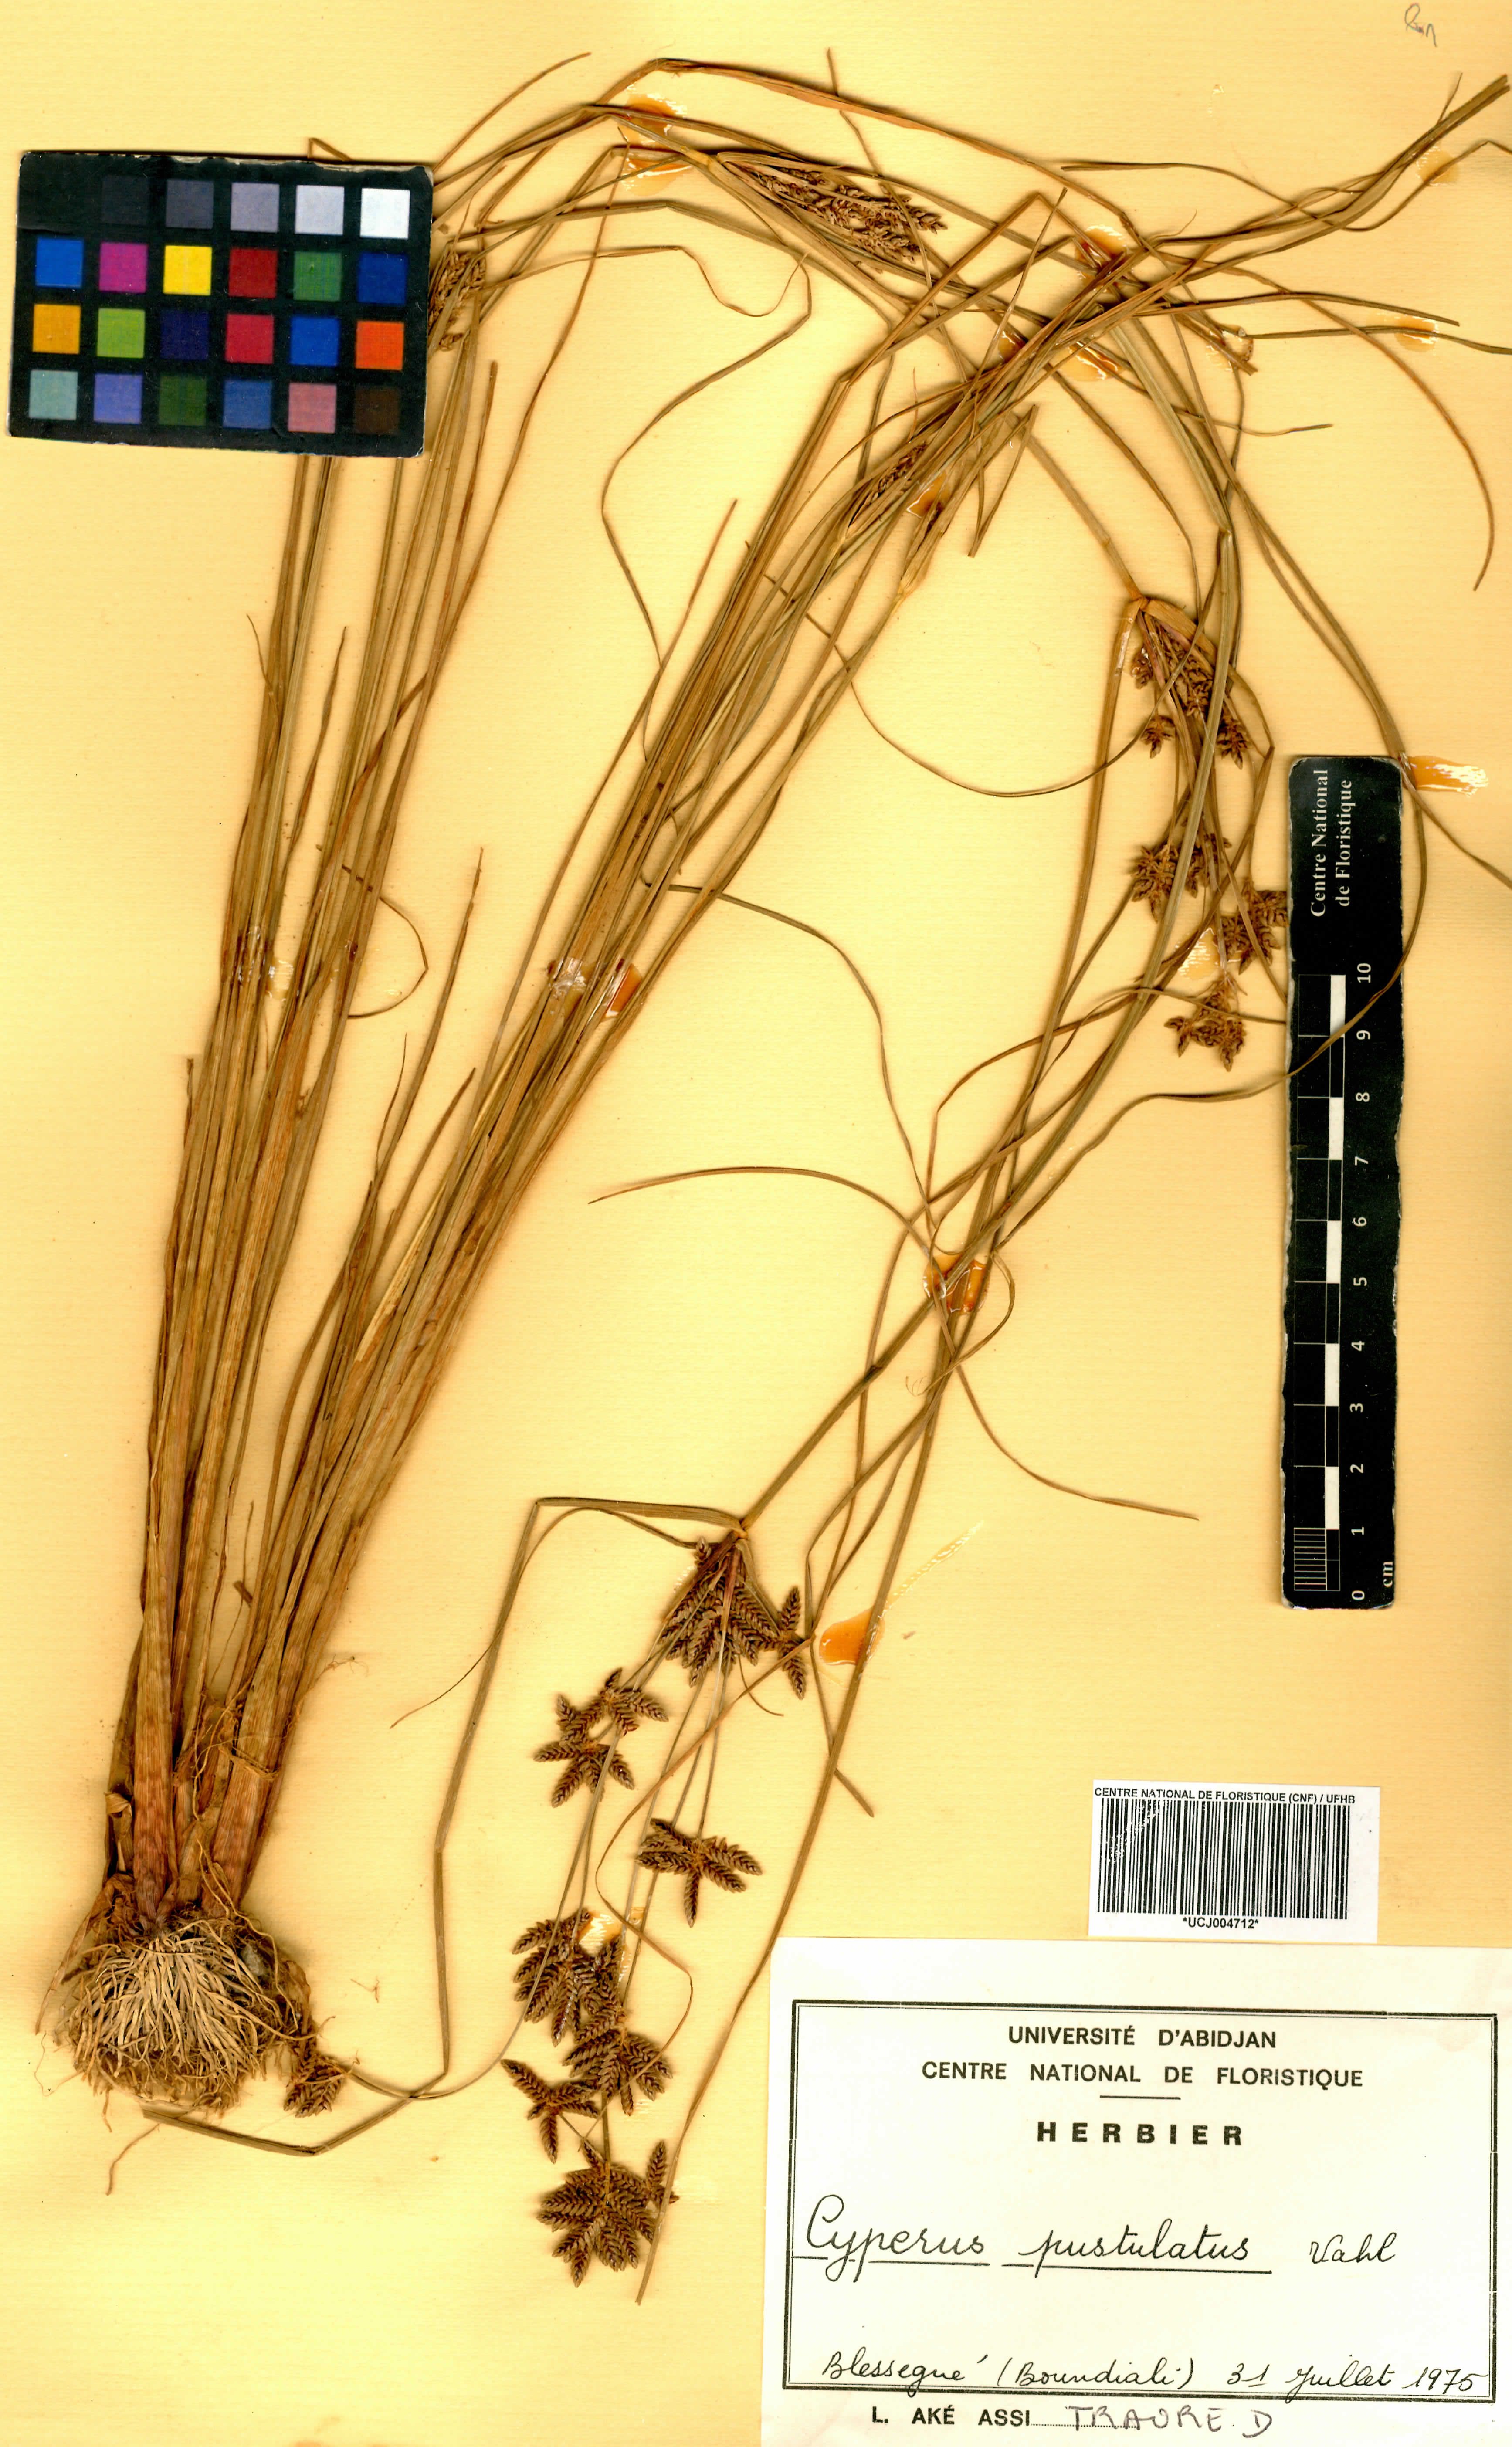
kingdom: Plantae
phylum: Tracheophyta
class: Liliopsida
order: Poales
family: Cyperaceae
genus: Cyperus
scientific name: Cyperus pustulatus
